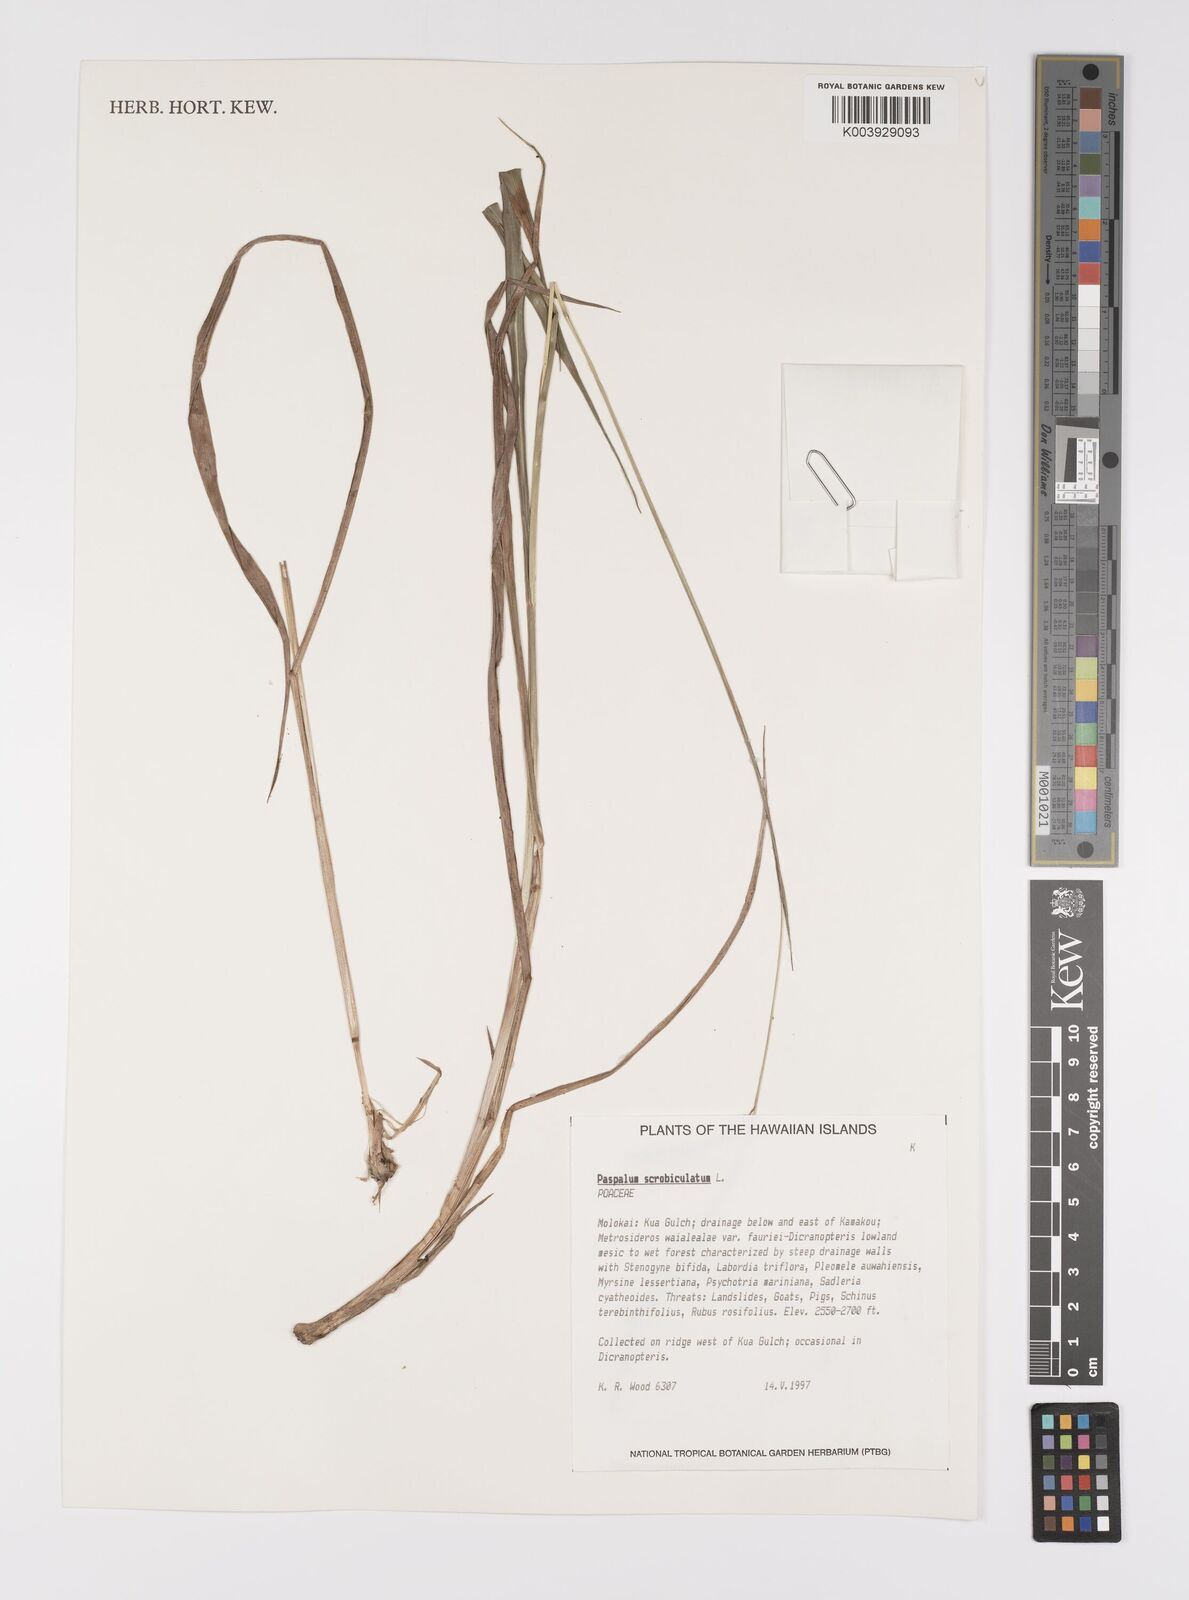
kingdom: Plantae
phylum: Tracheophyta
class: Liliopsida
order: Poales
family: Poaceae
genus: Paspalum
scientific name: Paspalum scrobiculatum
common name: Kodo millet
